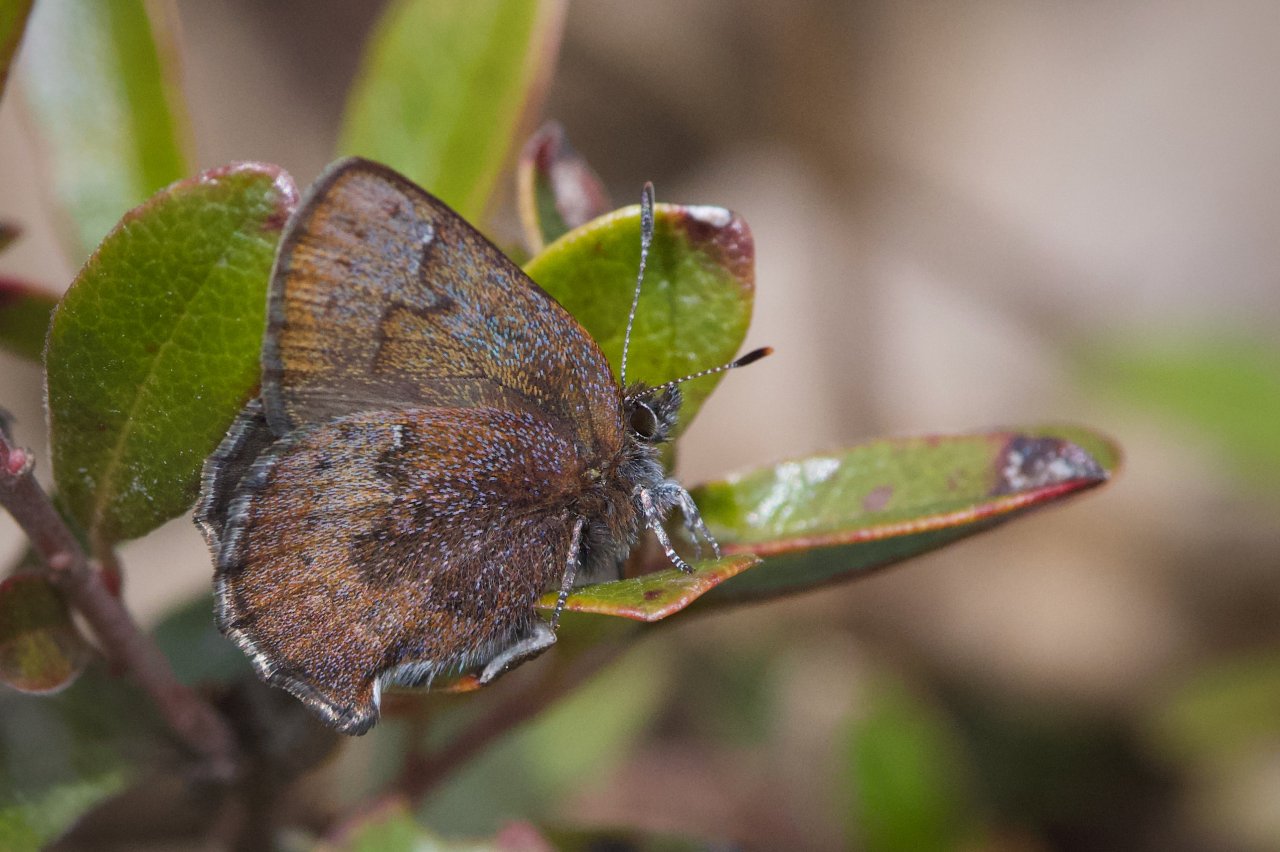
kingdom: Animalia
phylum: Arthropoda
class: Insecta
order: Lepidoptera
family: Lycaenidae
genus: Incisalia
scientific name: Incisalia irioides
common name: Brown Elfin
